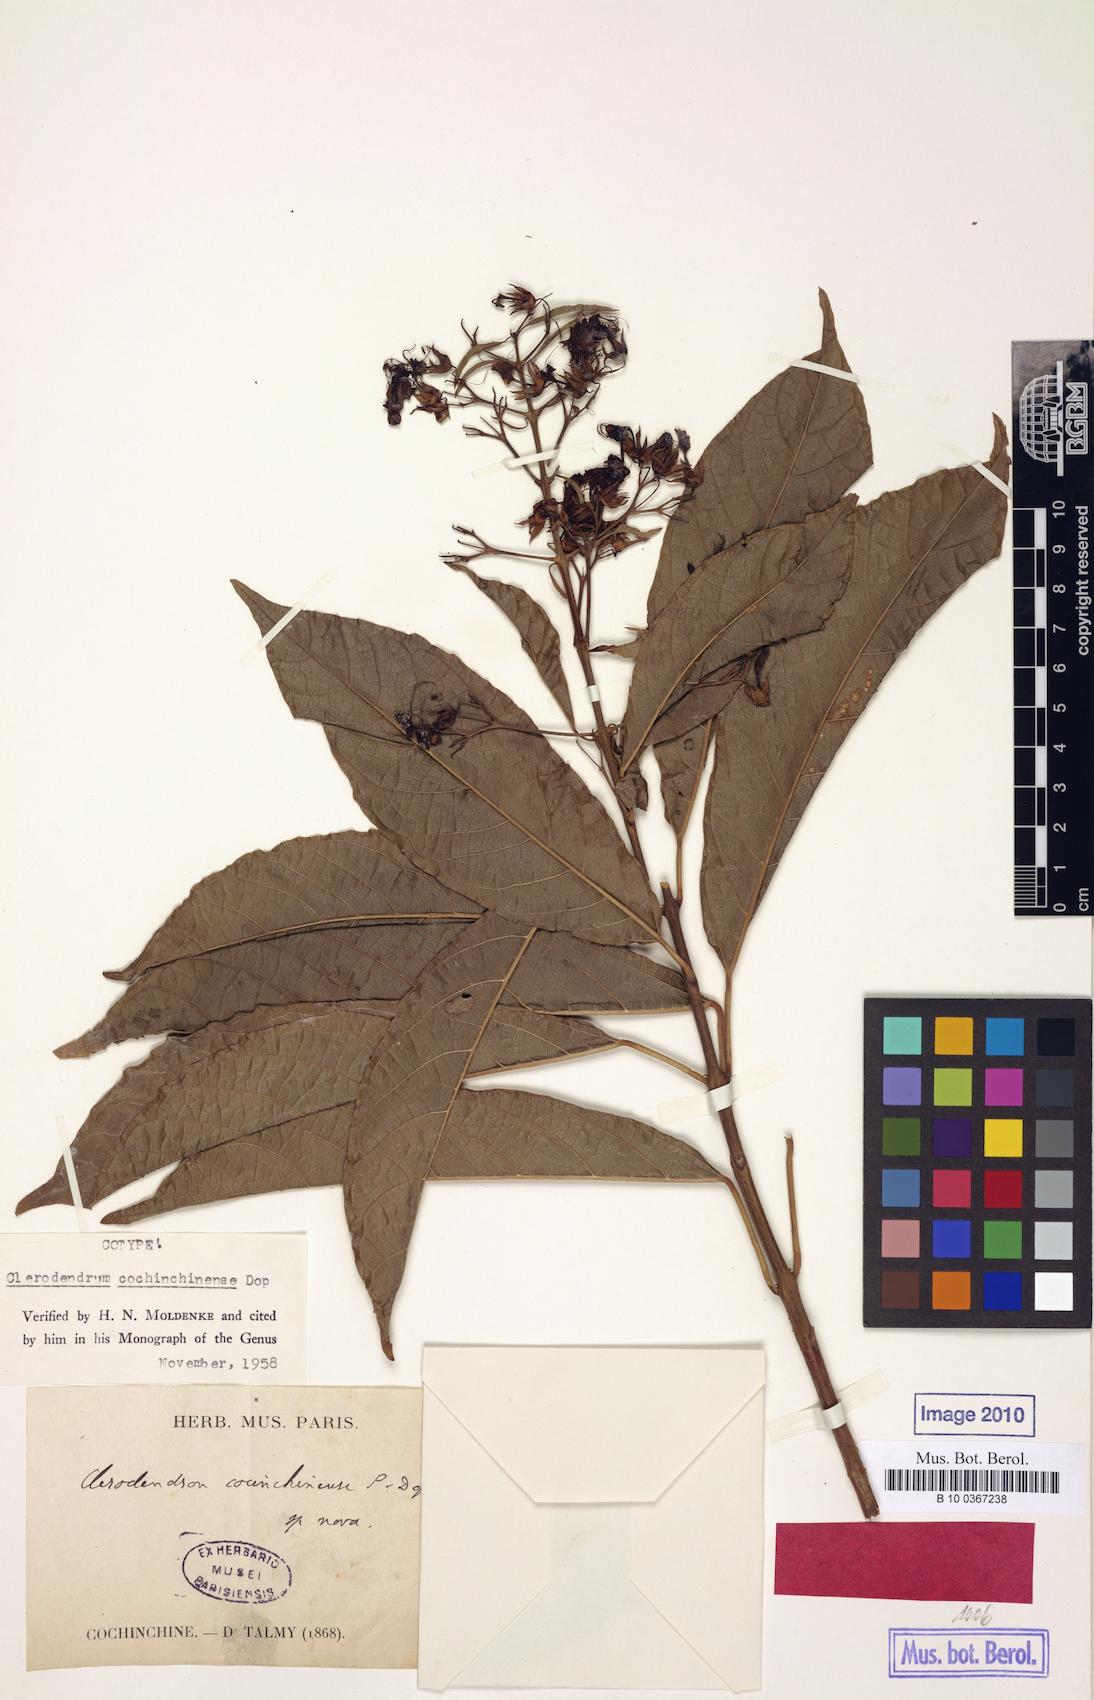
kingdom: Plantae
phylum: Tracheophyta
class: Magnoliopsida
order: Lamiales
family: Lamiaceae
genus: Clerodendrum
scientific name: Clerodendrum cochinchinense
